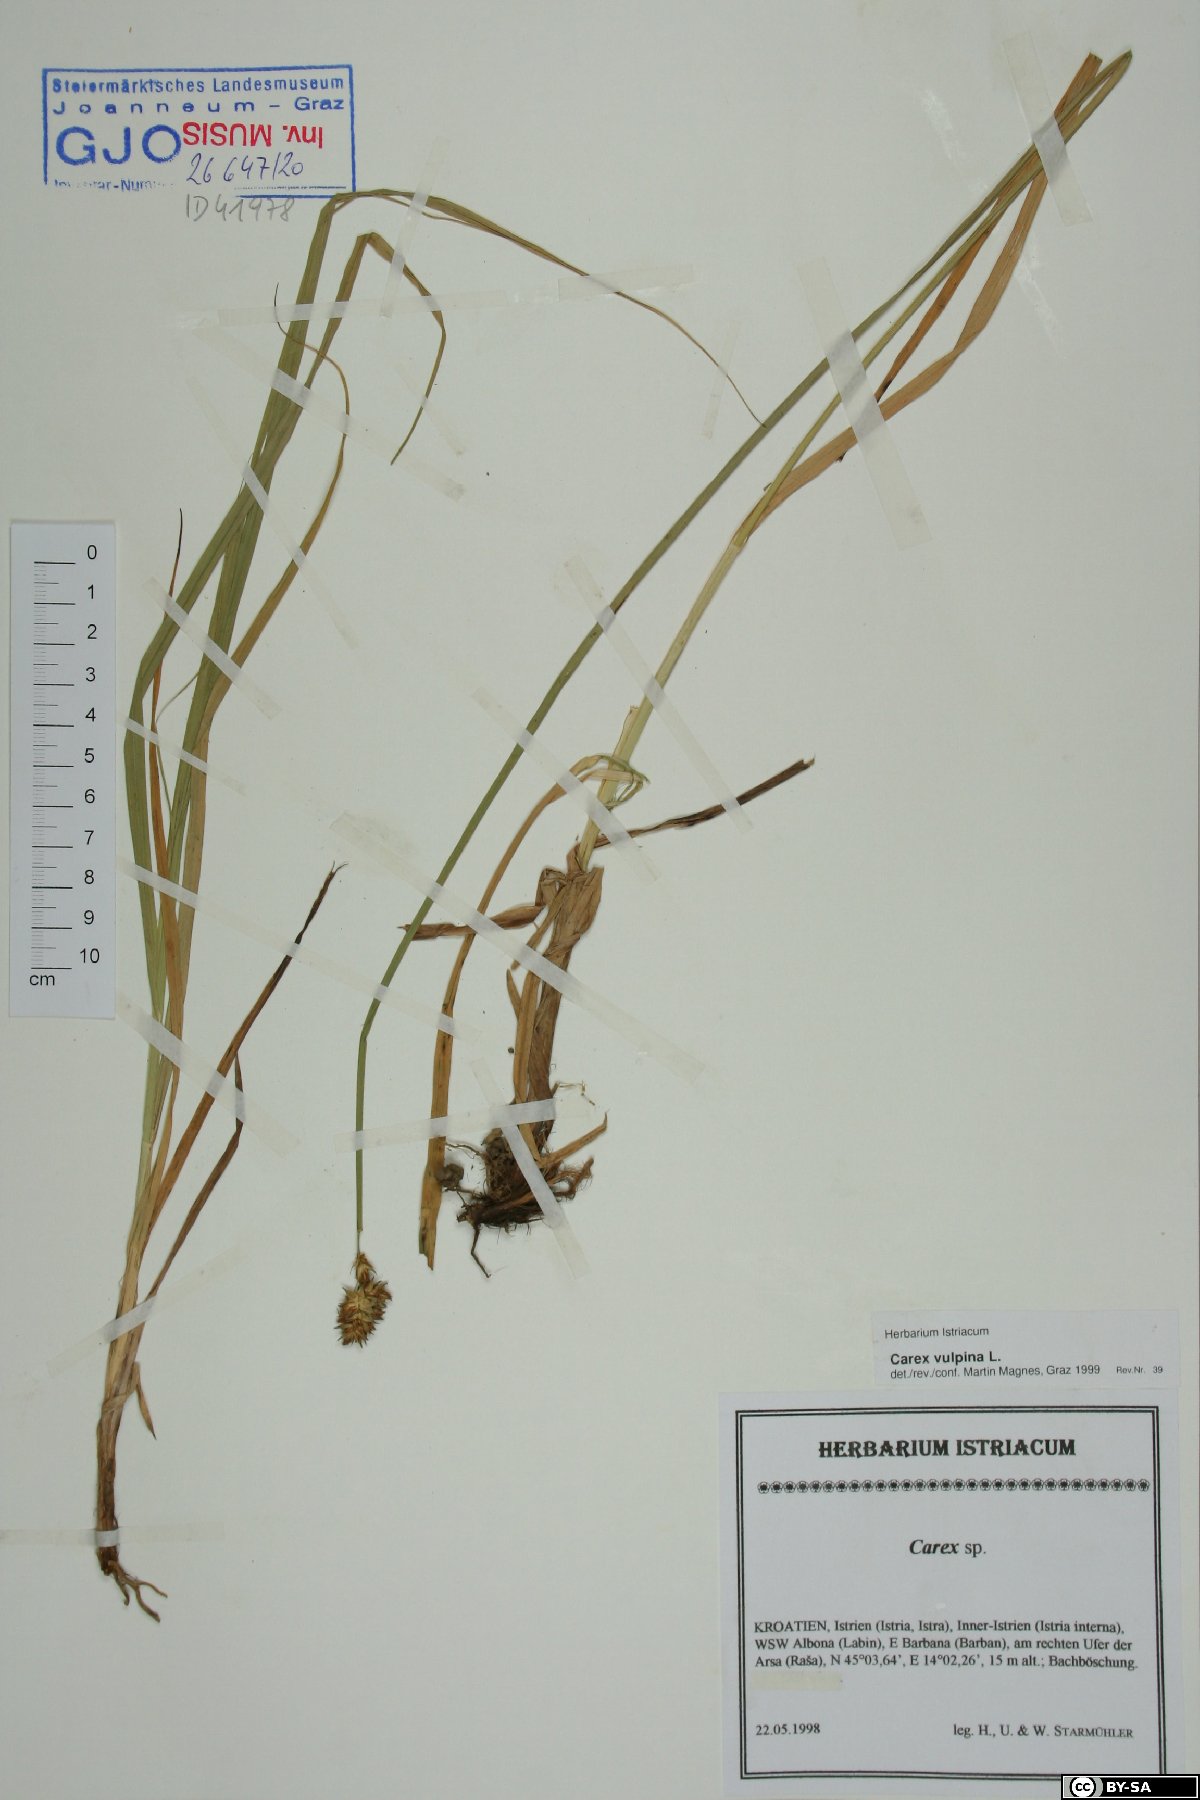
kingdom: Plantae
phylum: Tracheophyta
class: Liliopsida
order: Poales
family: Cyperaceae
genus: Carex
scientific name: Carex vulpina
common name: True fox-sedge
